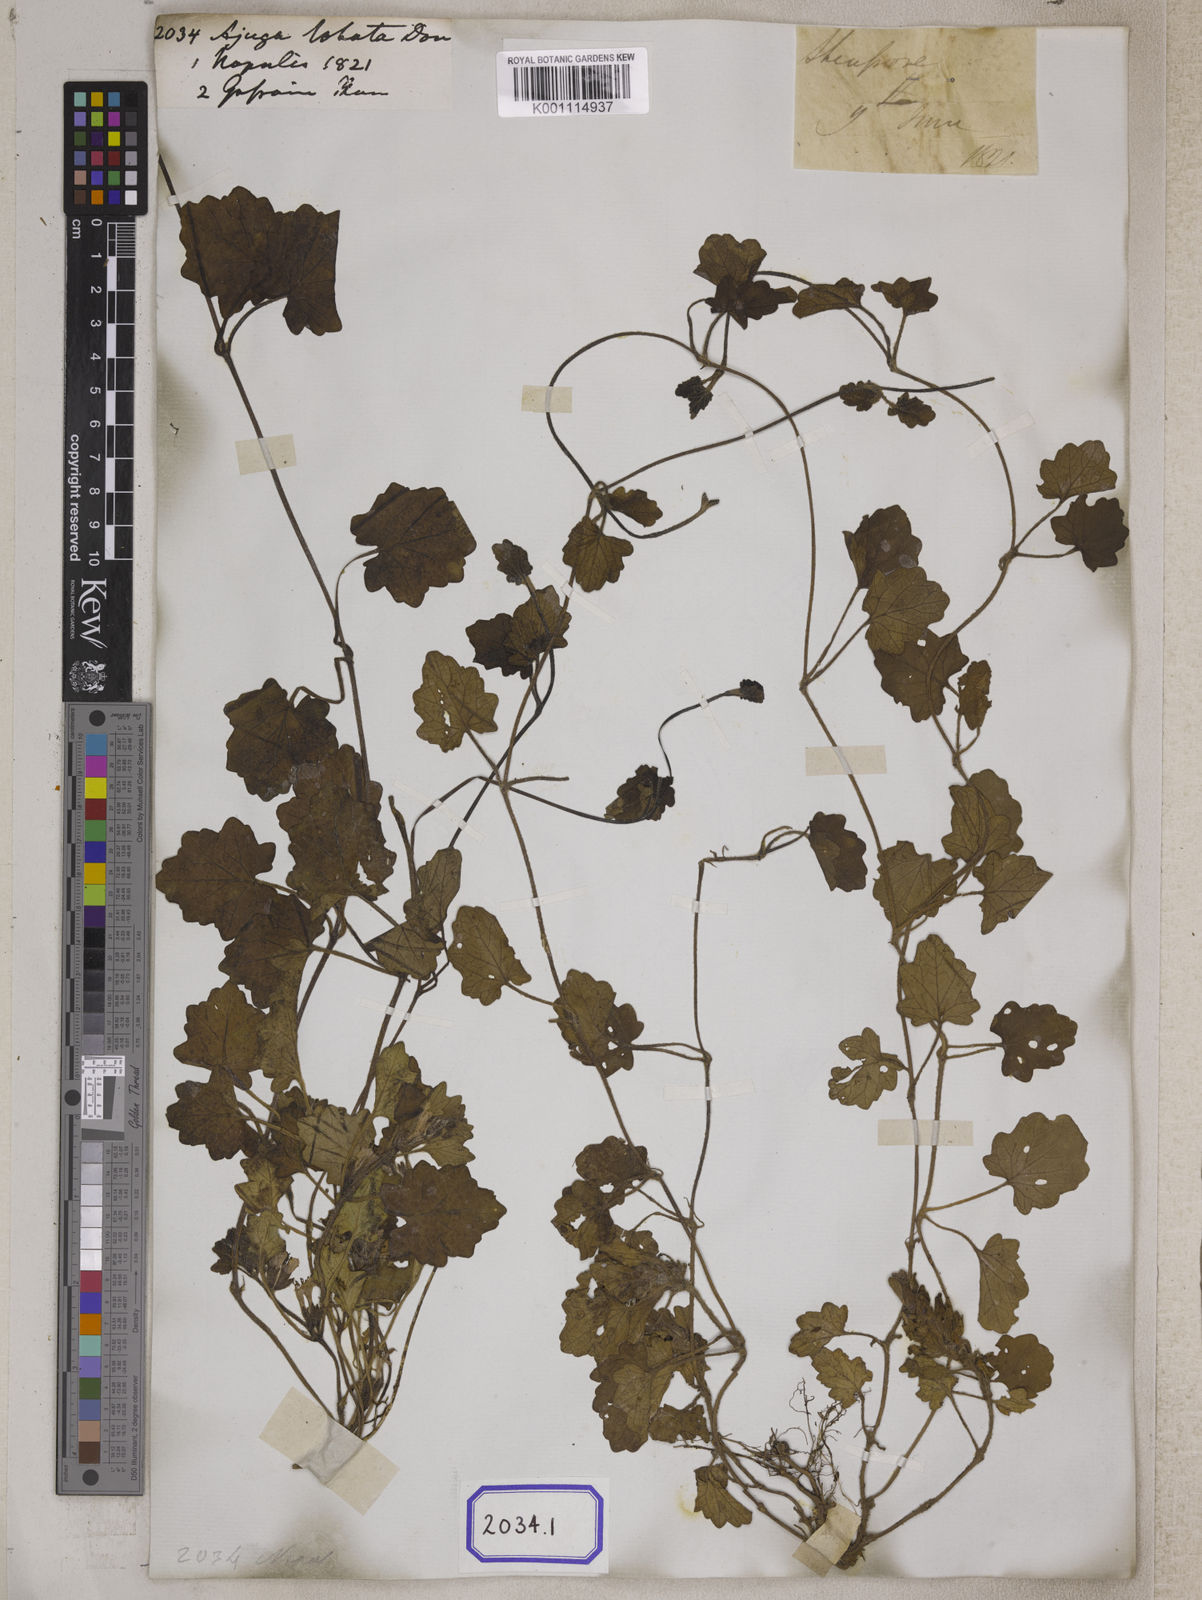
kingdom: Plantae
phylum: Tracheophyta
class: Magnoliopsida
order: Lamiales
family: Lamiaceae
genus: Ajuga
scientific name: Ajuga lobata
